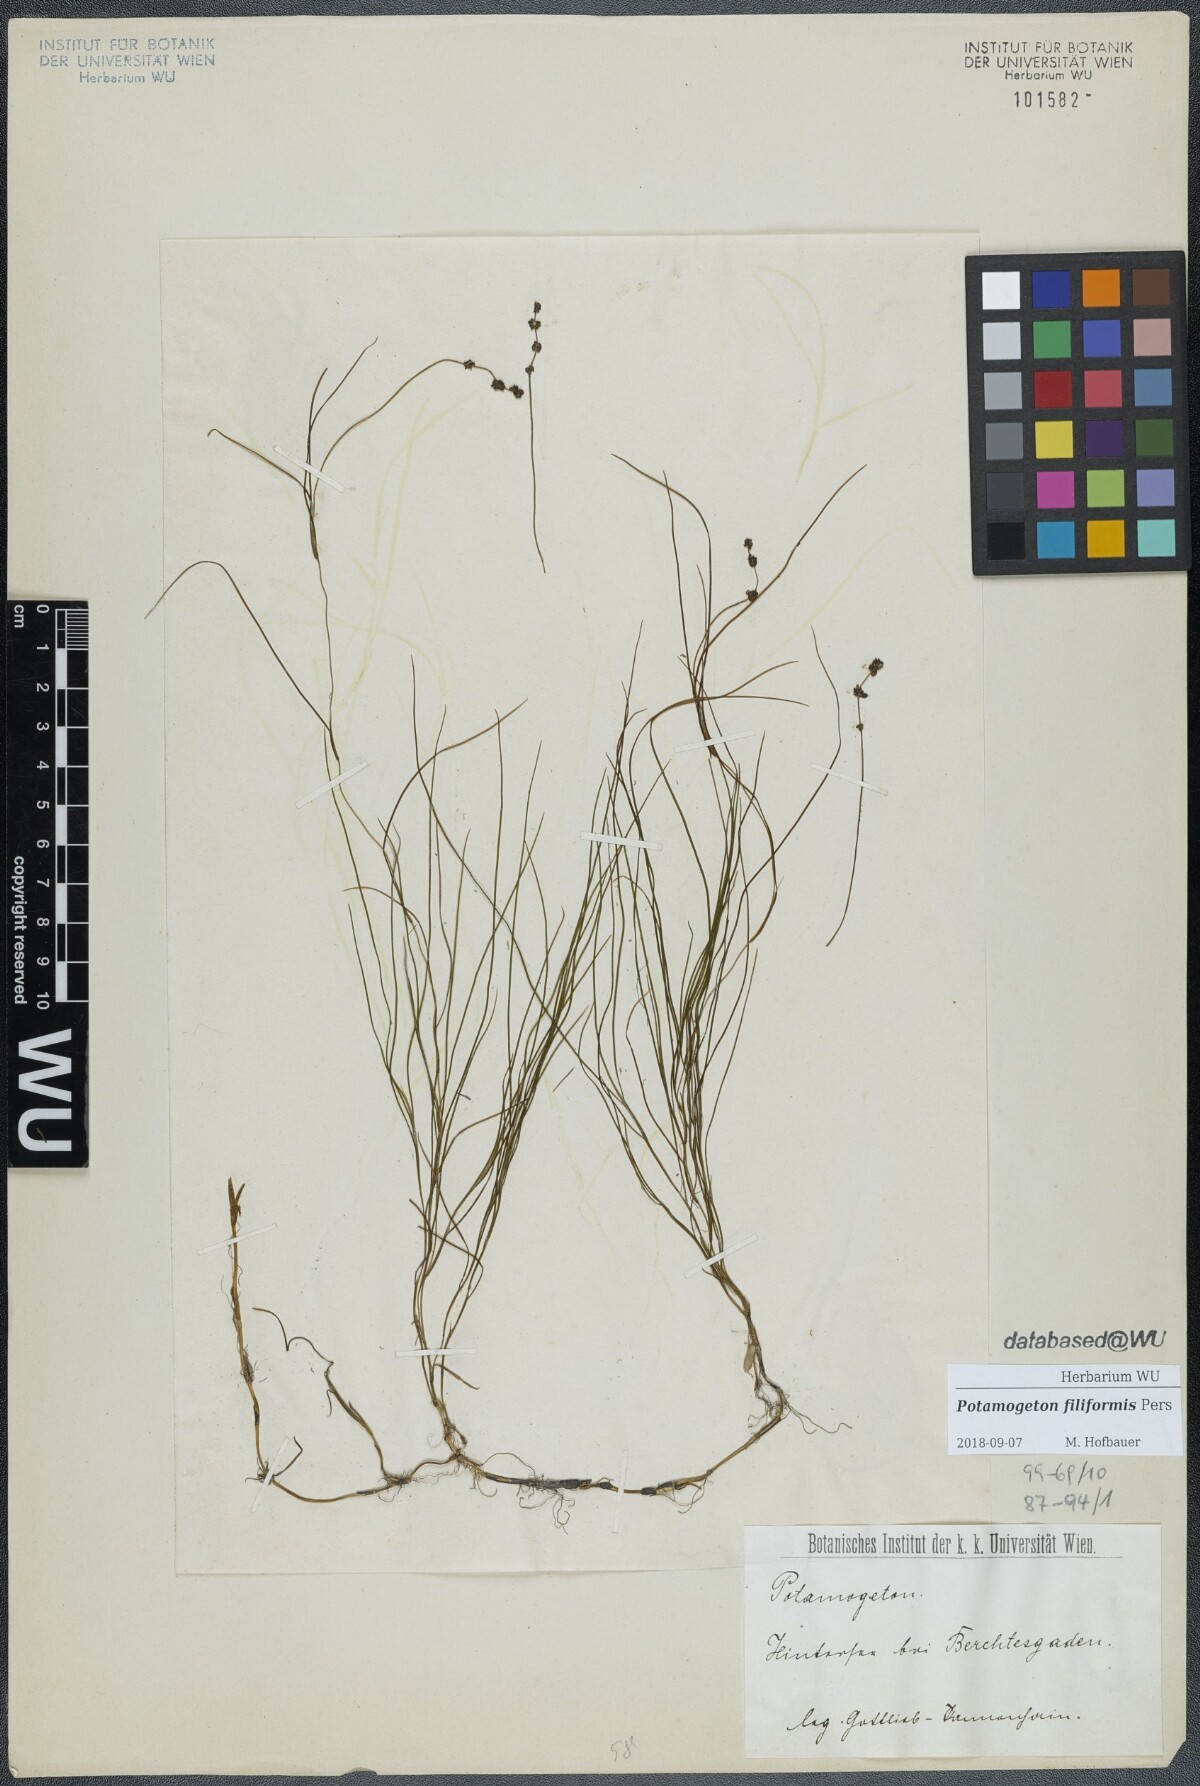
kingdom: Plantae
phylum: Tracheophyta
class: Liliopsida
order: Alismatales
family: Potamogetonaceae
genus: Stuckenia
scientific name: Stuckenia filiformis
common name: Alpine thread-leaved pondweed
